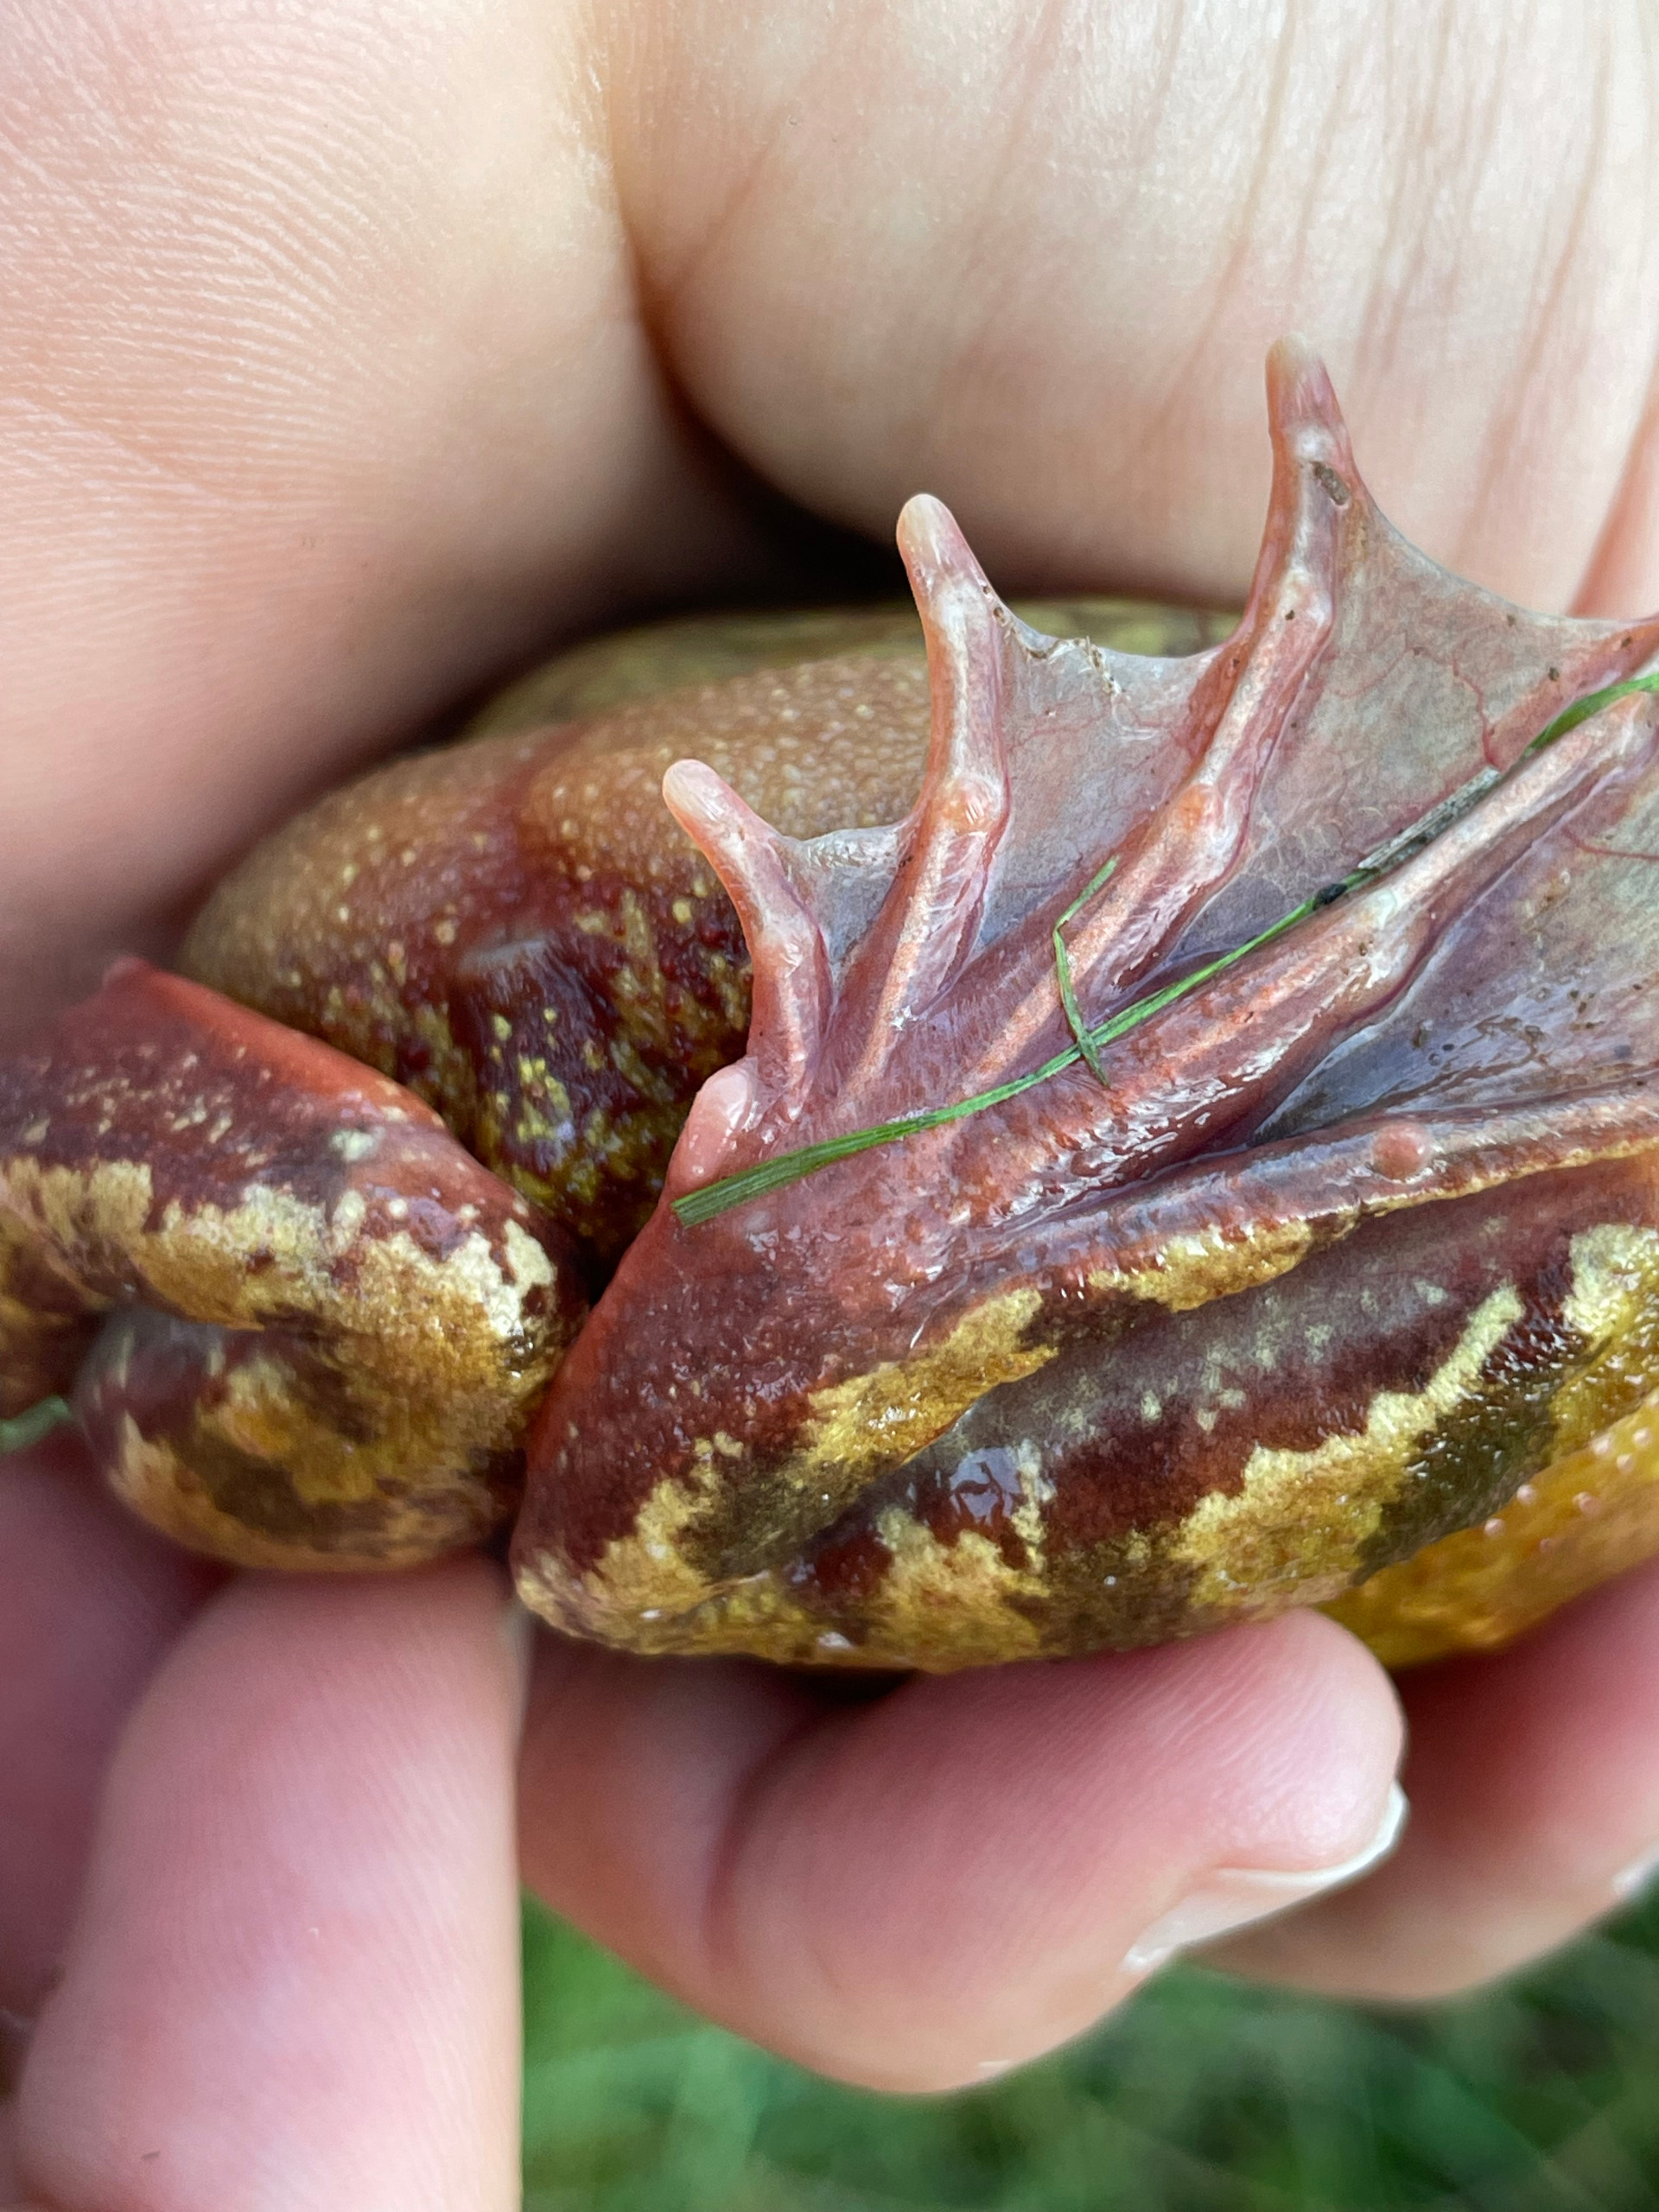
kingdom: Animalia
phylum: Chordata
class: Amphibia
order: Anura
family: Ranidae
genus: Rana
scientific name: Rana temporaria
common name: Butsnudet frø
